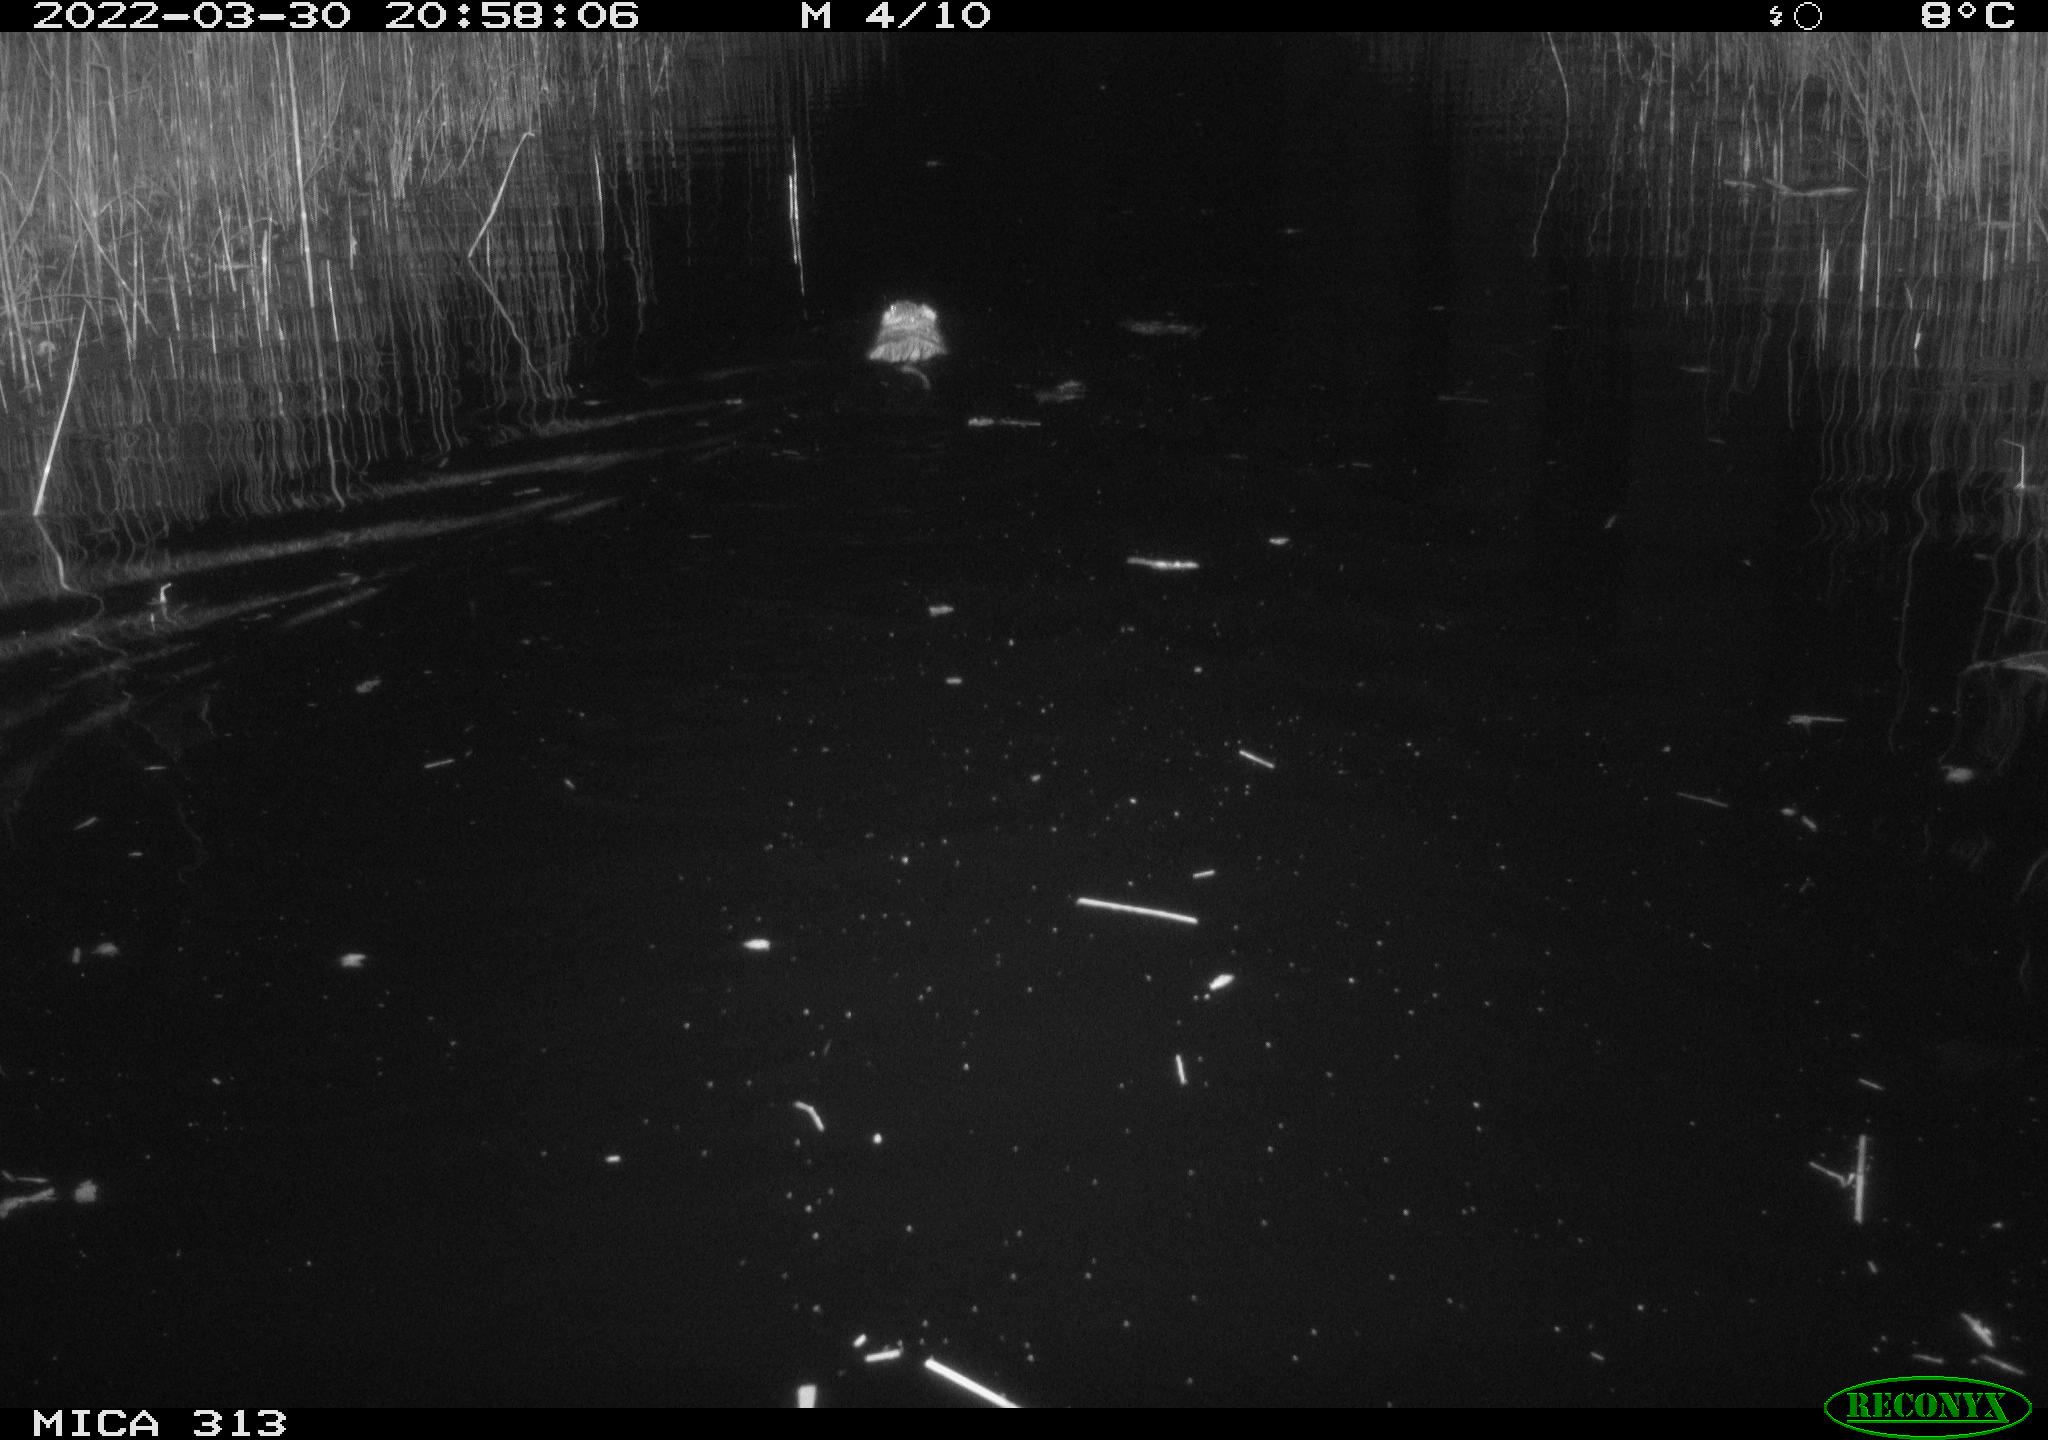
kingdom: Animalia
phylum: Chordata
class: Mammalia
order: Rodentia
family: Cricetidae
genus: Ondatra
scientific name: Ondatra zibethicus
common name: Muskrat
